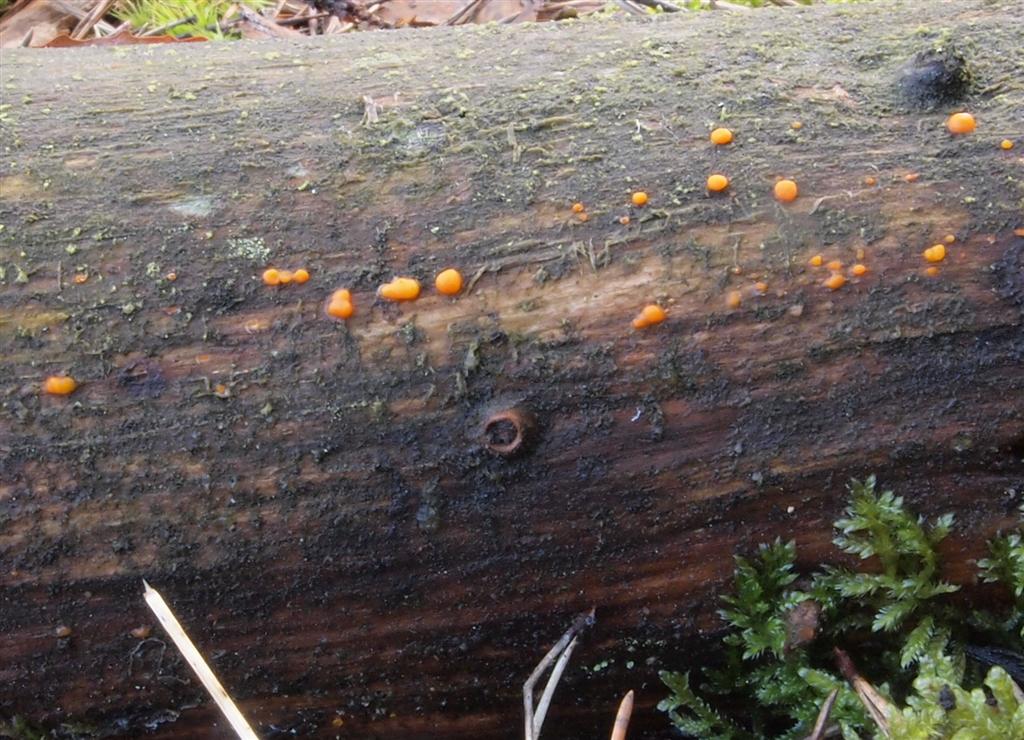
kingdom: Fungi
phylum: Basidiomycota
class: Dacrymycetes
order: Dacrymycetales
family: Dacrymycetaceae
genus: Dacrymyces
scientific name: Dacrymyces stillatus
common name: almindelig tåresvamp
